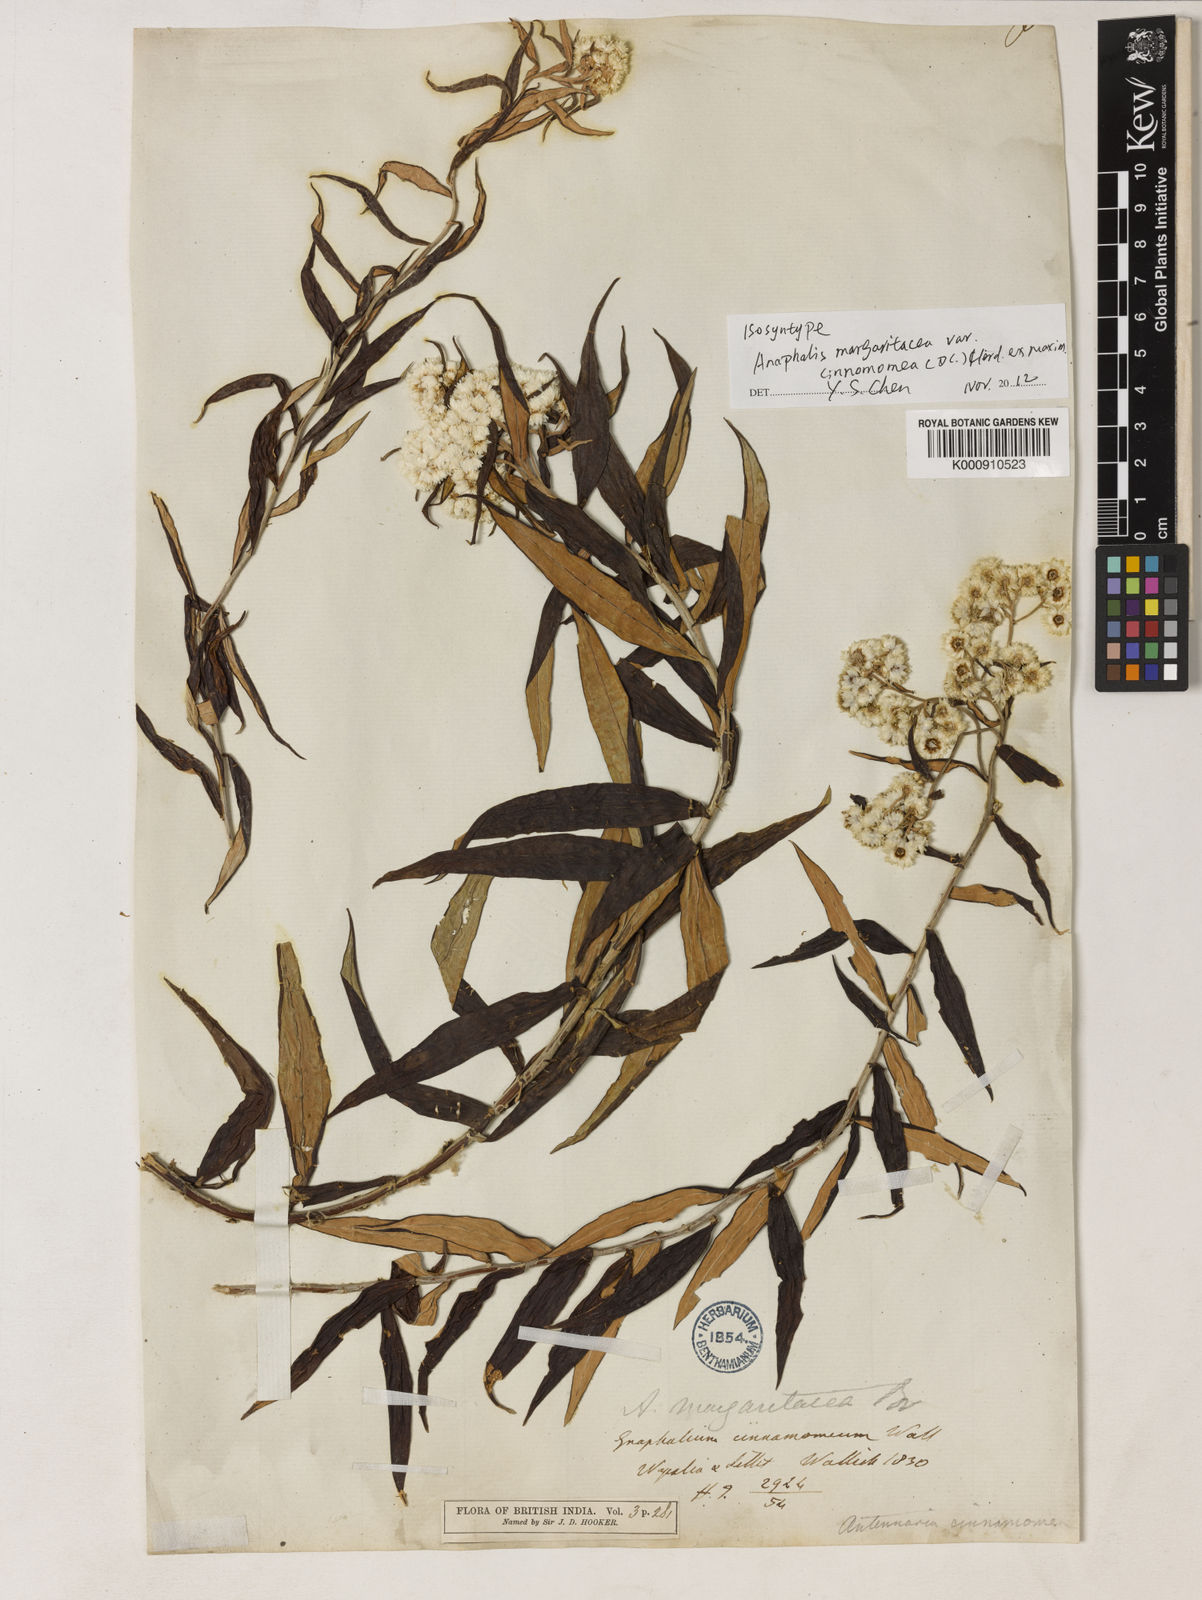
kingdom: Plantae
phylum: Tracheophyta
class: Magnoliopsida
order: Asterales
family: Asteraceae
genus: Anaphalis
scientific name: Anaphalis
